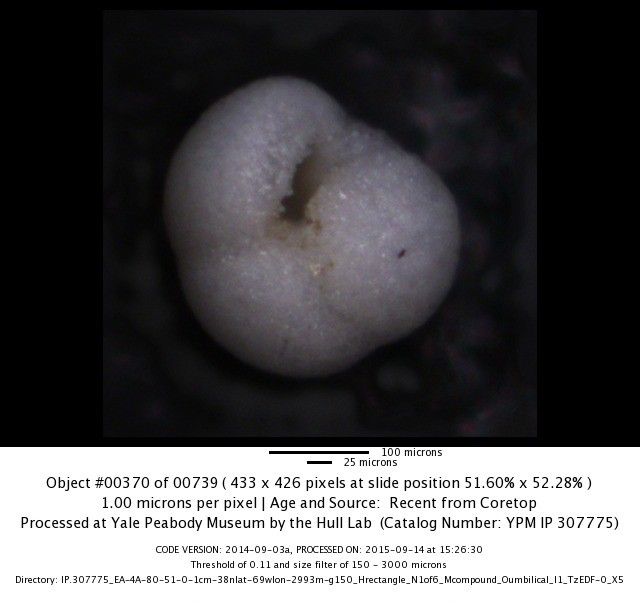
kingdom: Chromista
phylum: Foraminifera
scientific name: Foraminifera
